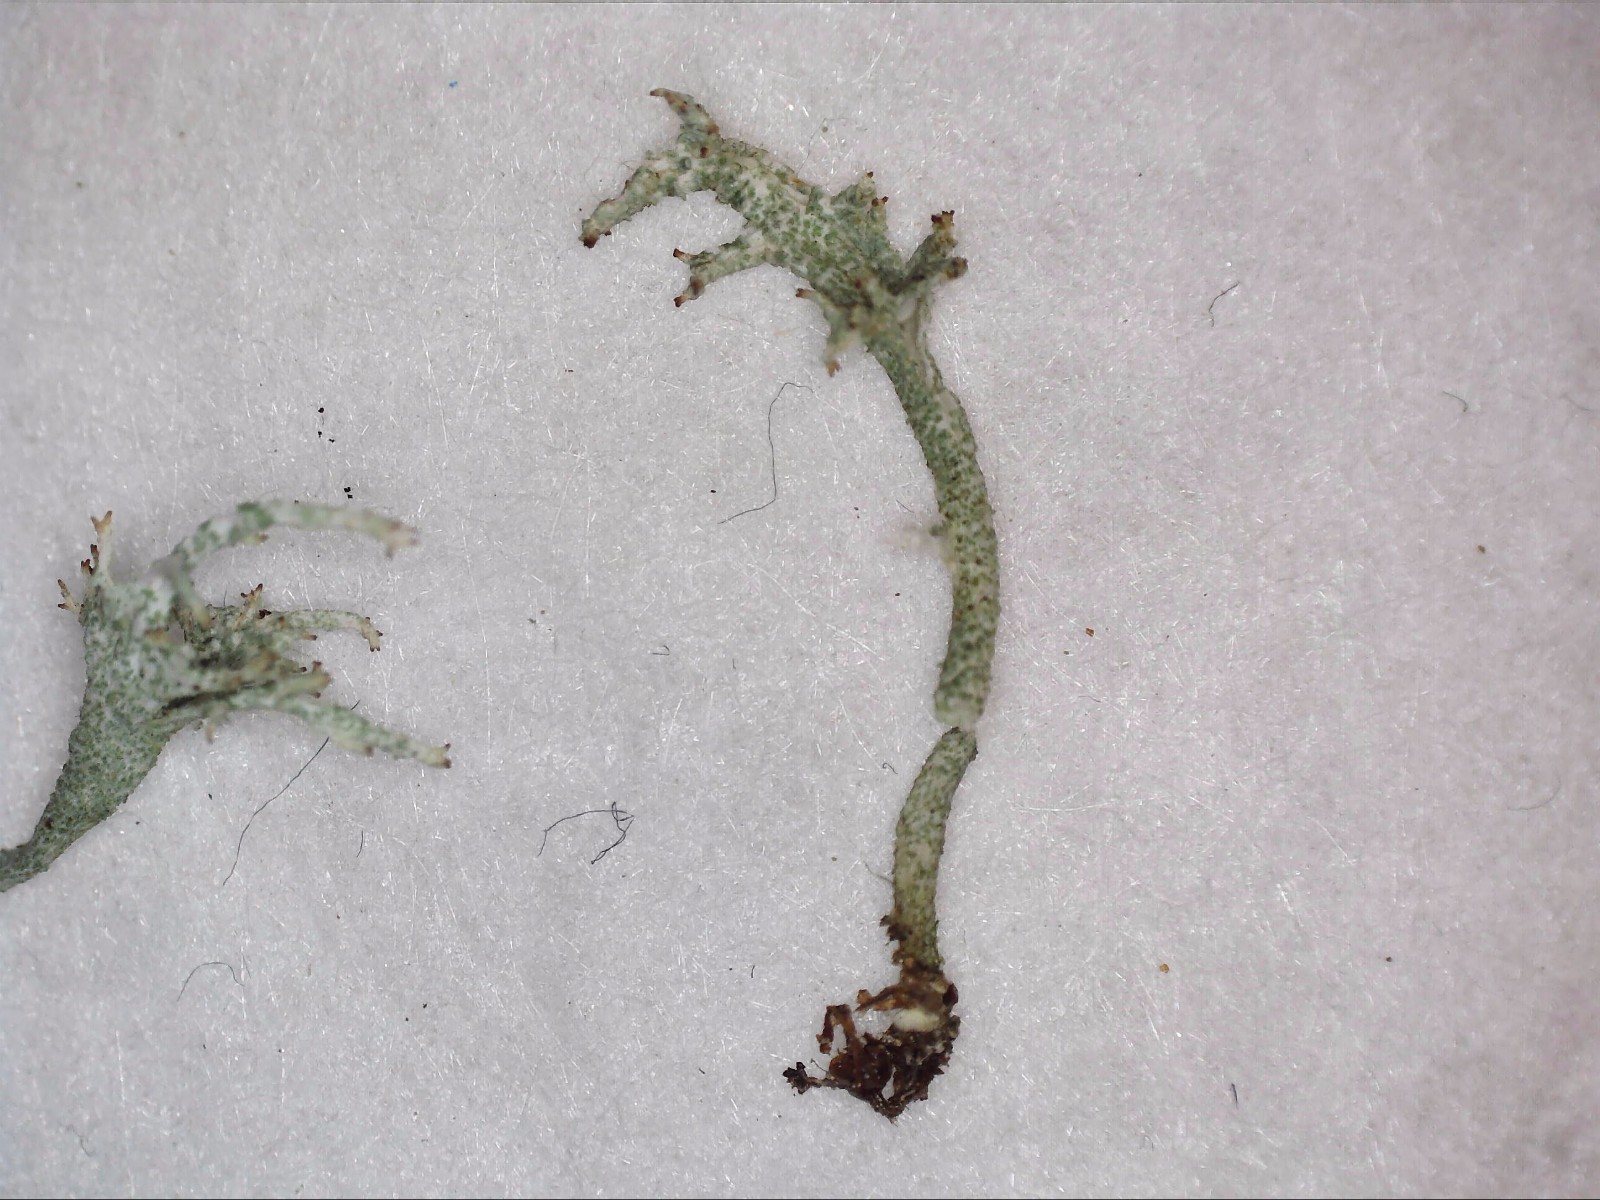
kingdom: Fungi
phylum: Ascomycota
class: Lecanoromycetes
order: Lecanorales
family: Cladoniaceae
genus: Cladonia
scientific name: Cladonia ramulosa
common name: kliddet bægerlav
